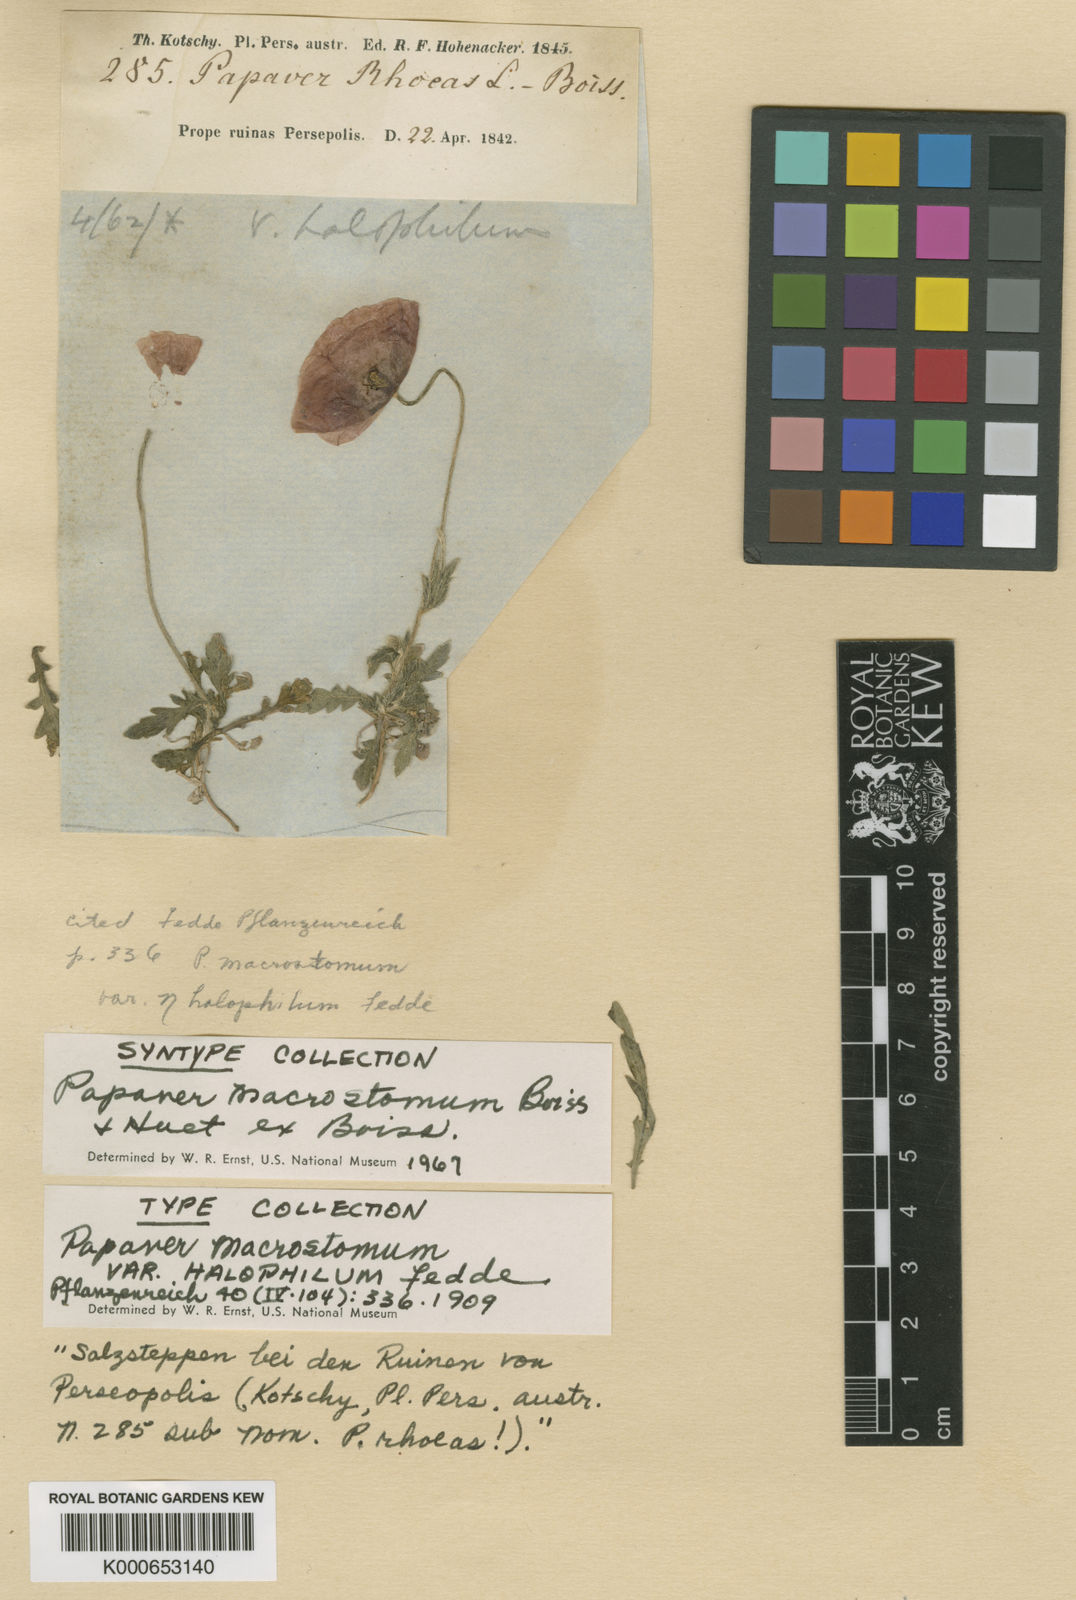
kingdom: Plantae
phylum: Tracheophyta
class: Magnoliopsida
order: Ranunculales
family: Papaveraceae
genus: Papaver
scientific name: Papaver macrostomum
